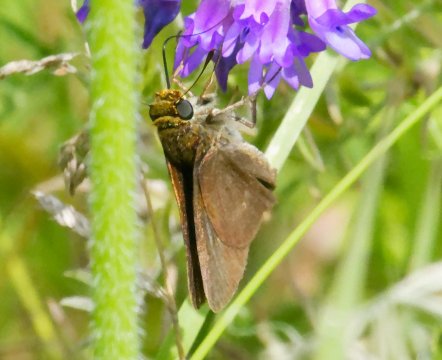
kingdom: Animalia
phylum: Arthropoda
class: Insecta
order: Lepidoptera
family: Hesperiidae
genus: Polites
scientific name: Polites themistocles
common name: Tawny-edged Skipper
